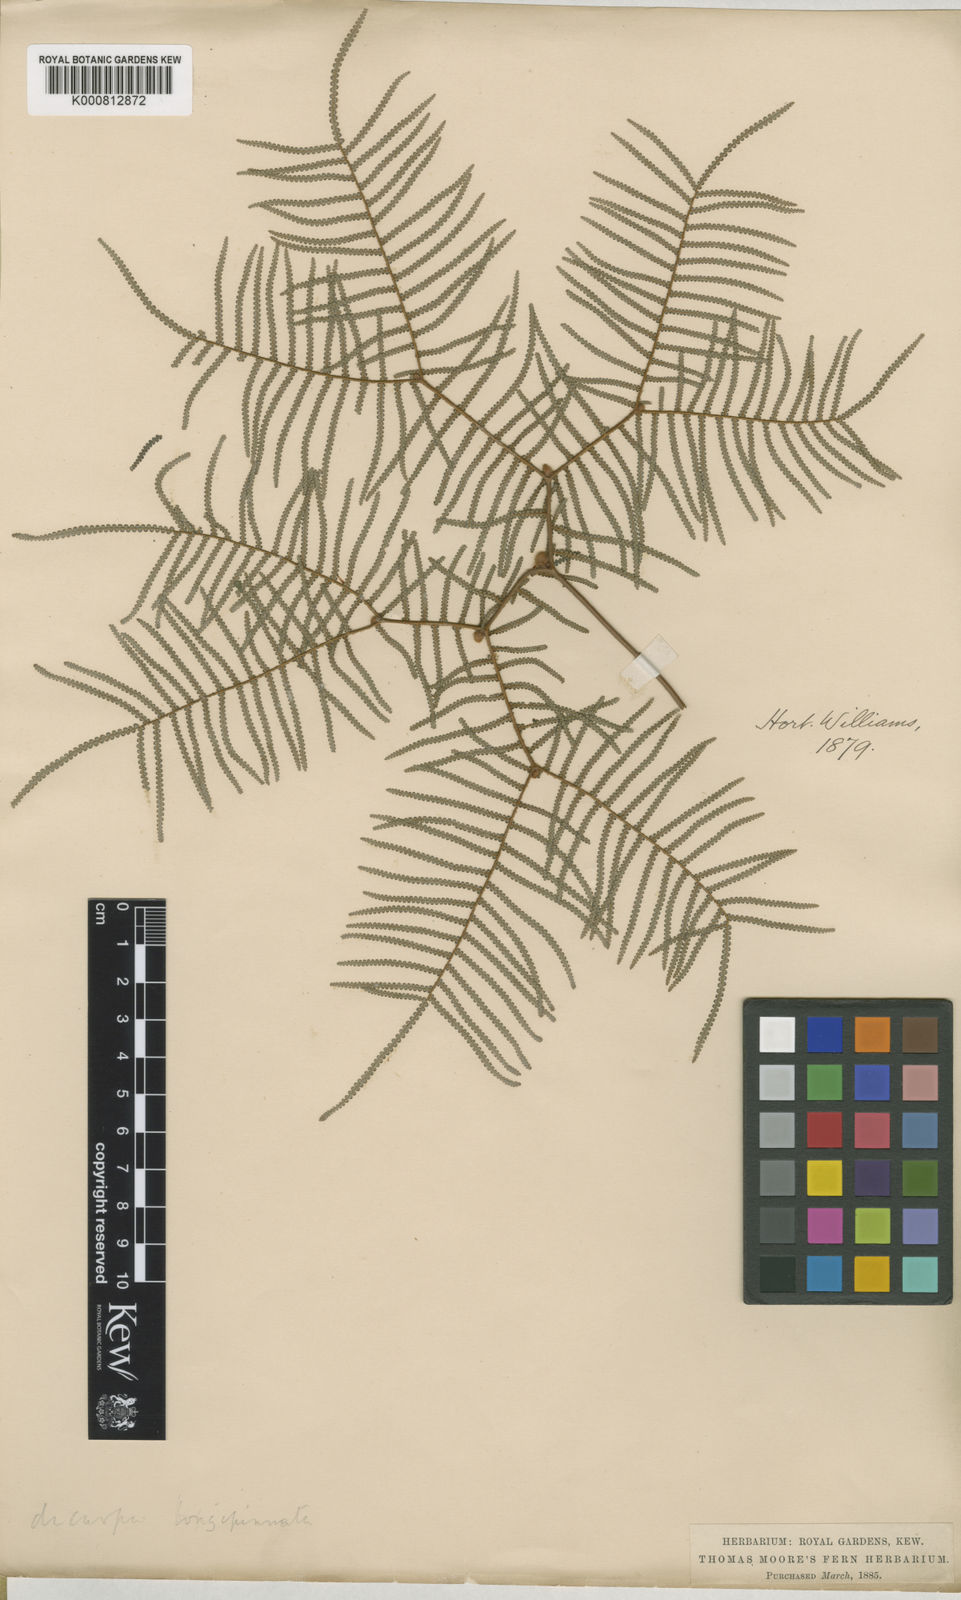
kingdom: Plantae
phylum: Tracheophyta
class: Polypodiopsida
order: Gleicheniales
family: Gleicheniaceae
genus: Gleichenia
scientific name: Gleichenia dicarpa
